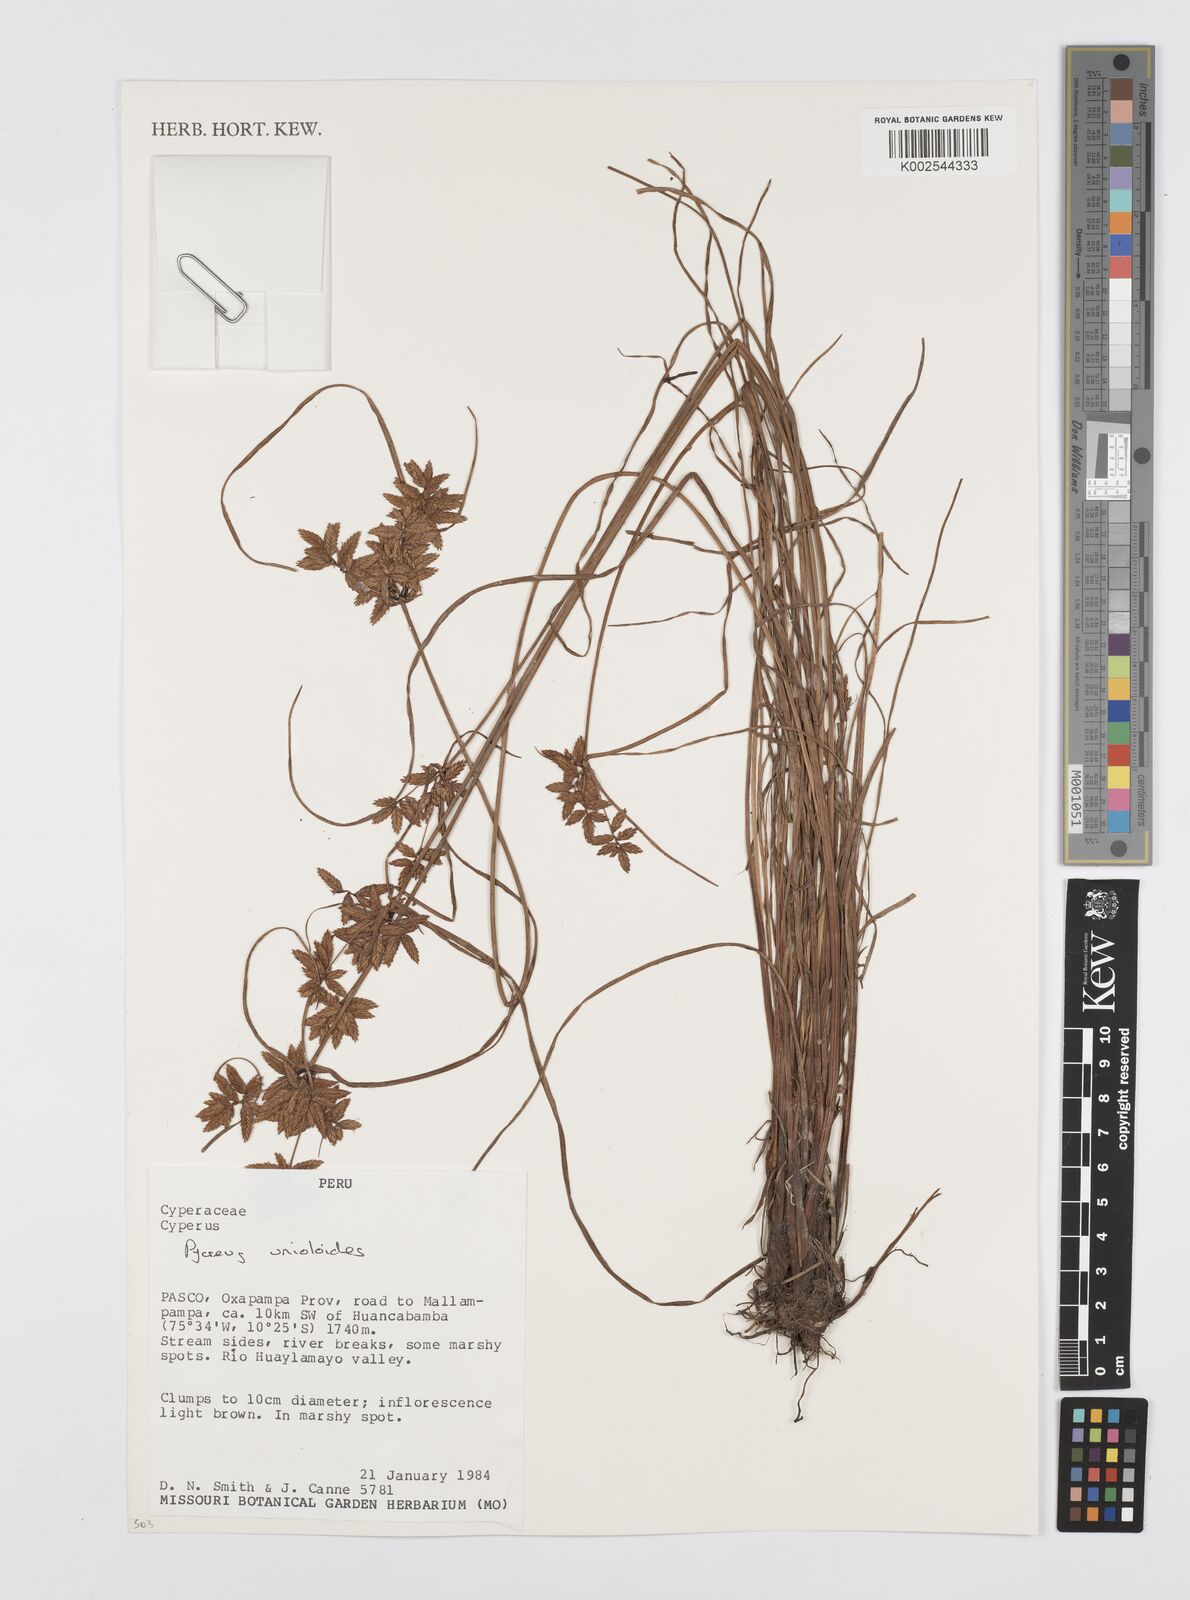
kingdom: Plantae
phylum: Tracheophyta
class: Liliopsida
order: Poales
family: Cyperaceae
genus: Cyperus
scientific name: Cyperus unioloides
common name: Uniola flatsedge
